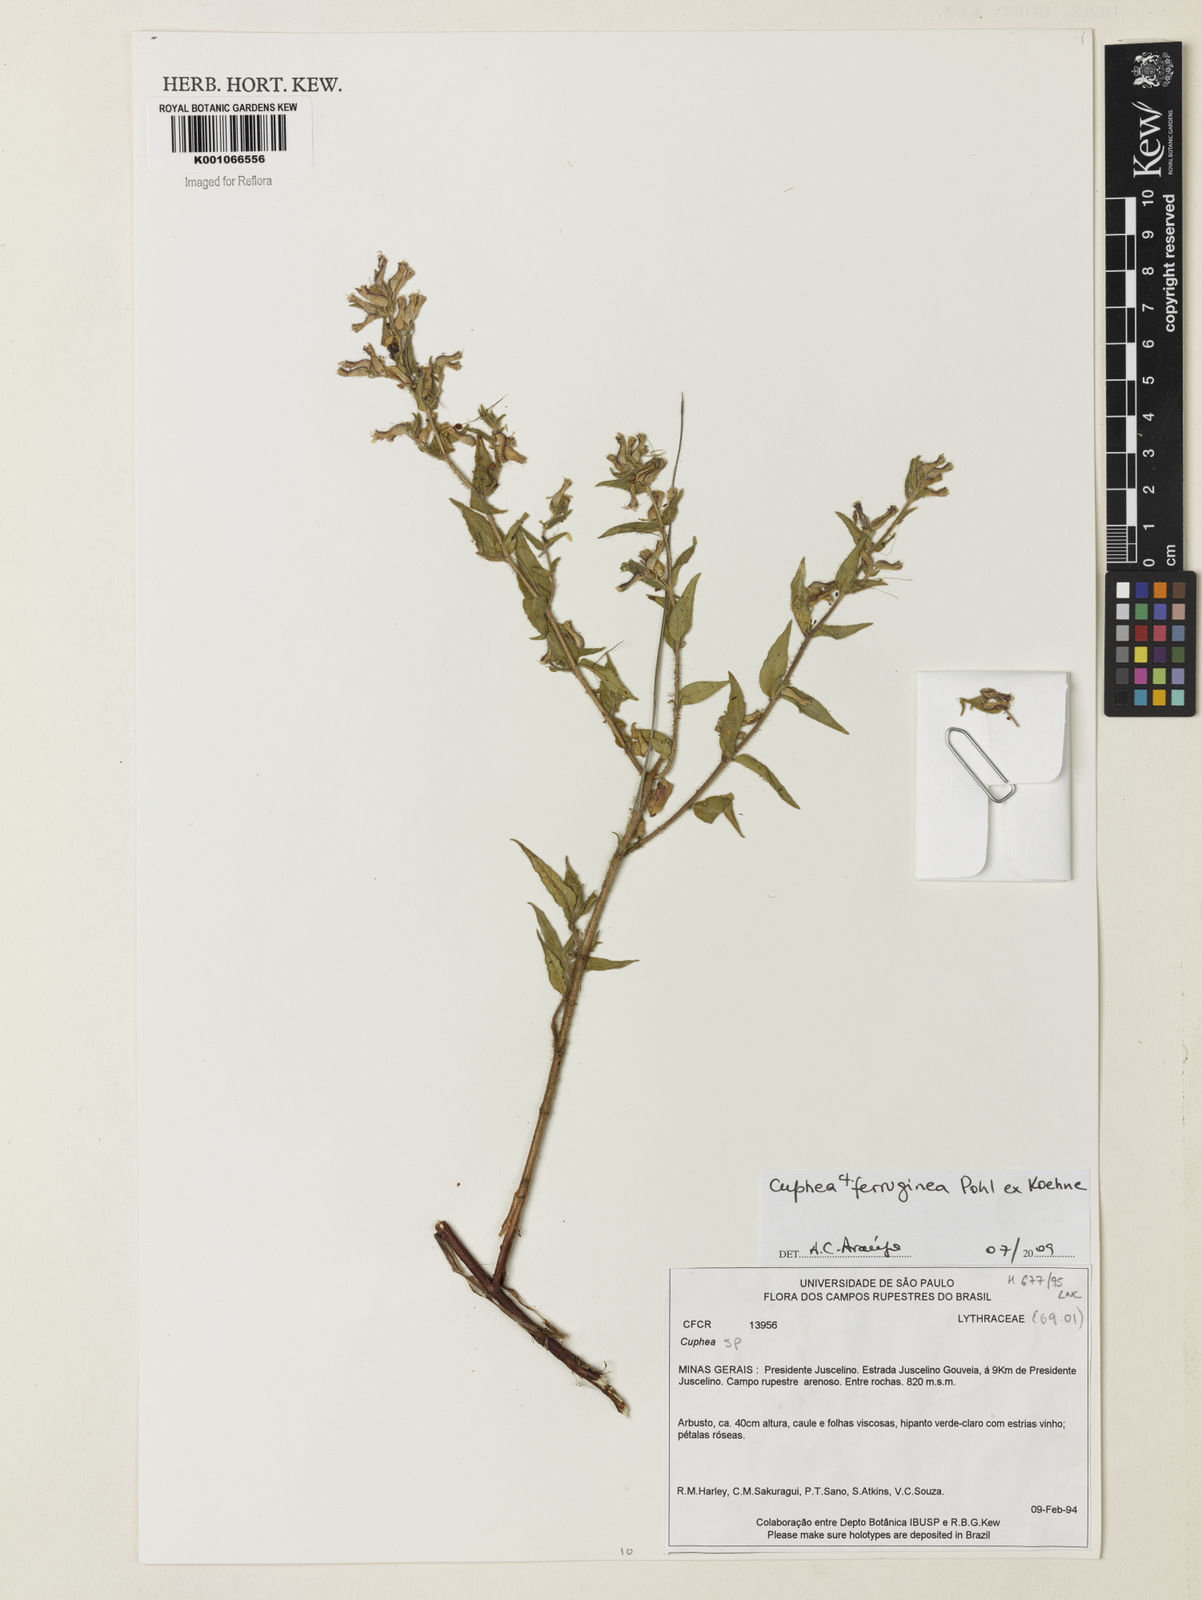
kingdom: Plantae
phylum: Tracheophyta
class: Magnoliopsida
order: Myrtales
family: Lythraceae
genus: Cuphea
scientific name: Cuphea ferruginea
